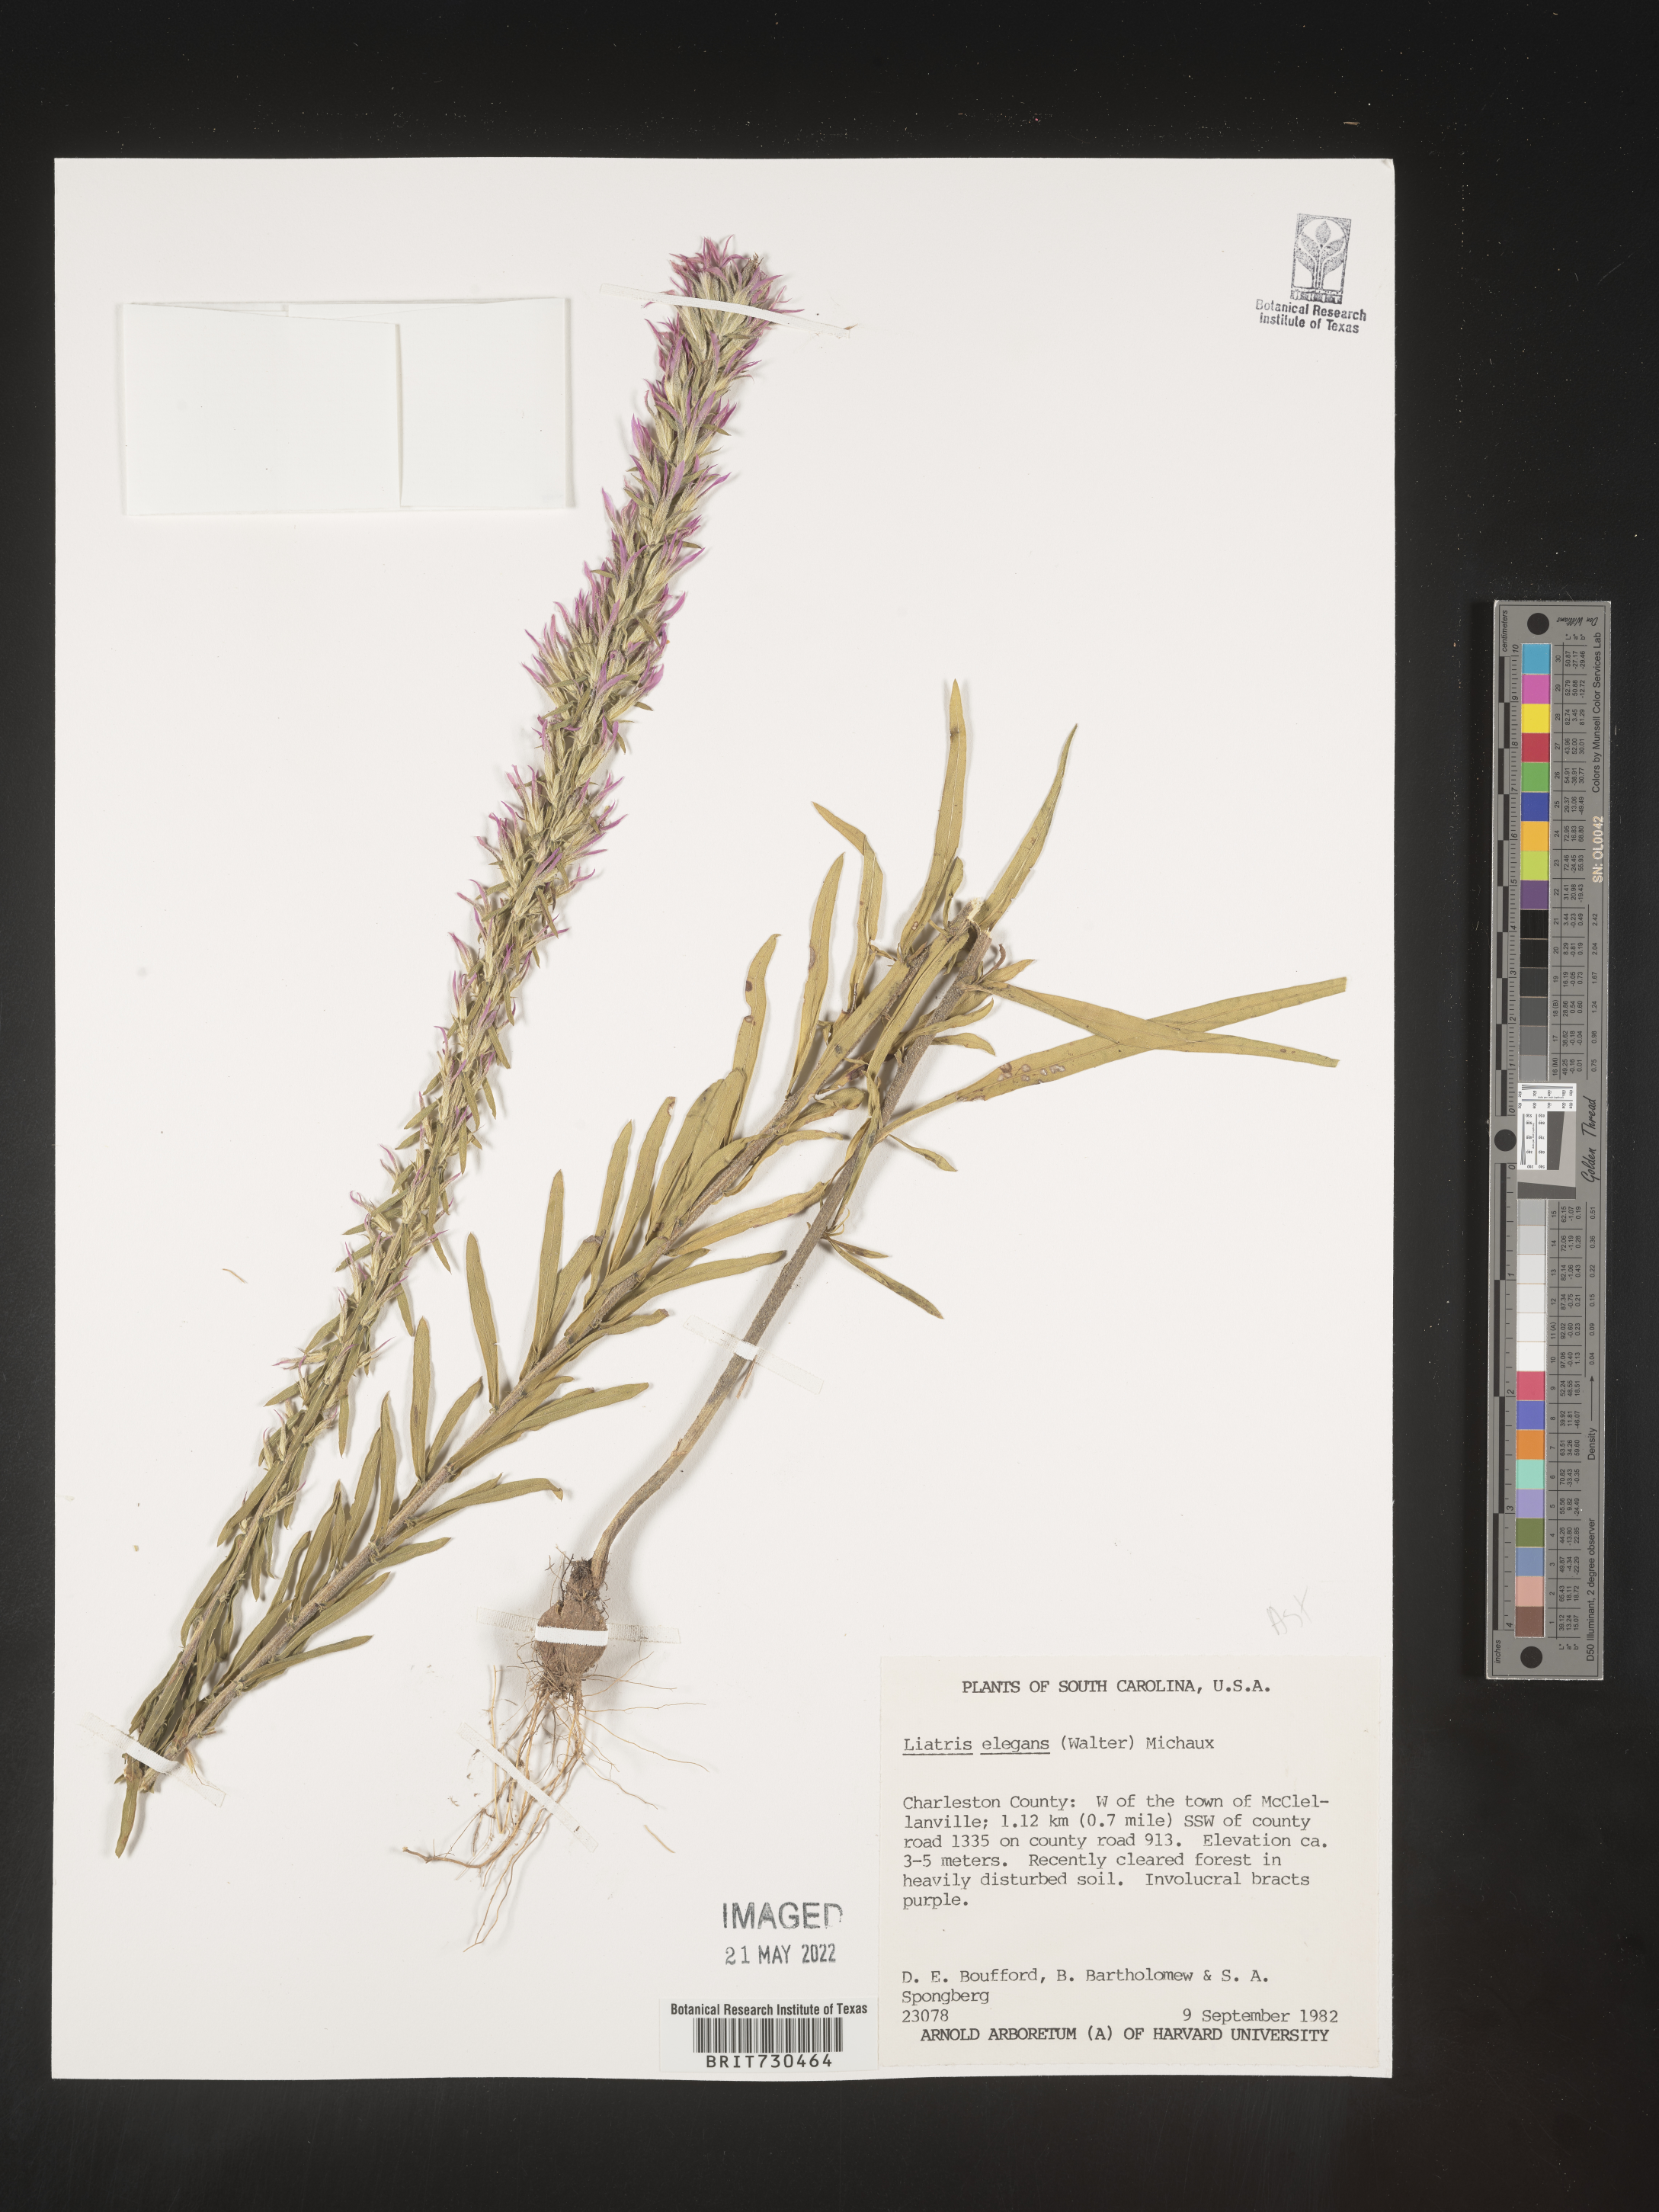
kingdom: Plantae
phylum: Tracheophyta
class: Magnoliopsida
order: Asterales
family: Asteraceae
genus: Liatris
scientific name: Liatris elegans
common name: Pinkscale gayfeather
